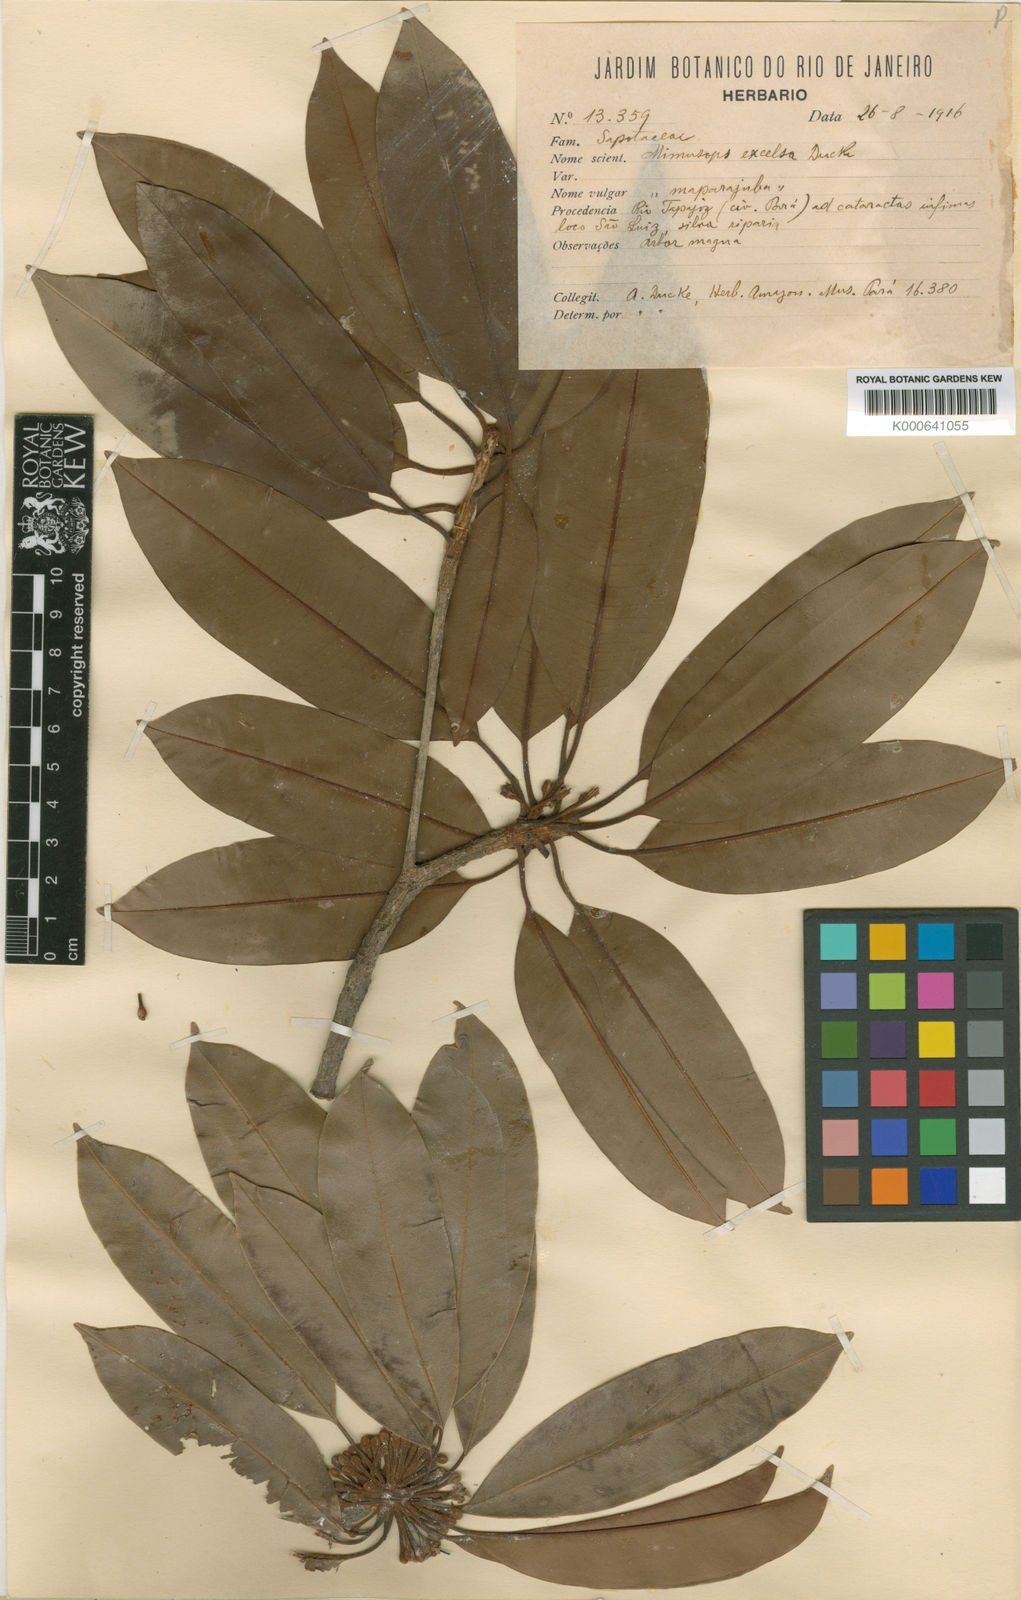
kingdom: Plantae
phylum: Tracheophyta
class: Magnoliopsida
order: Ericales
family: Sapotaceae
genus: Manilkara
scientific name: Manilkara excelsa
